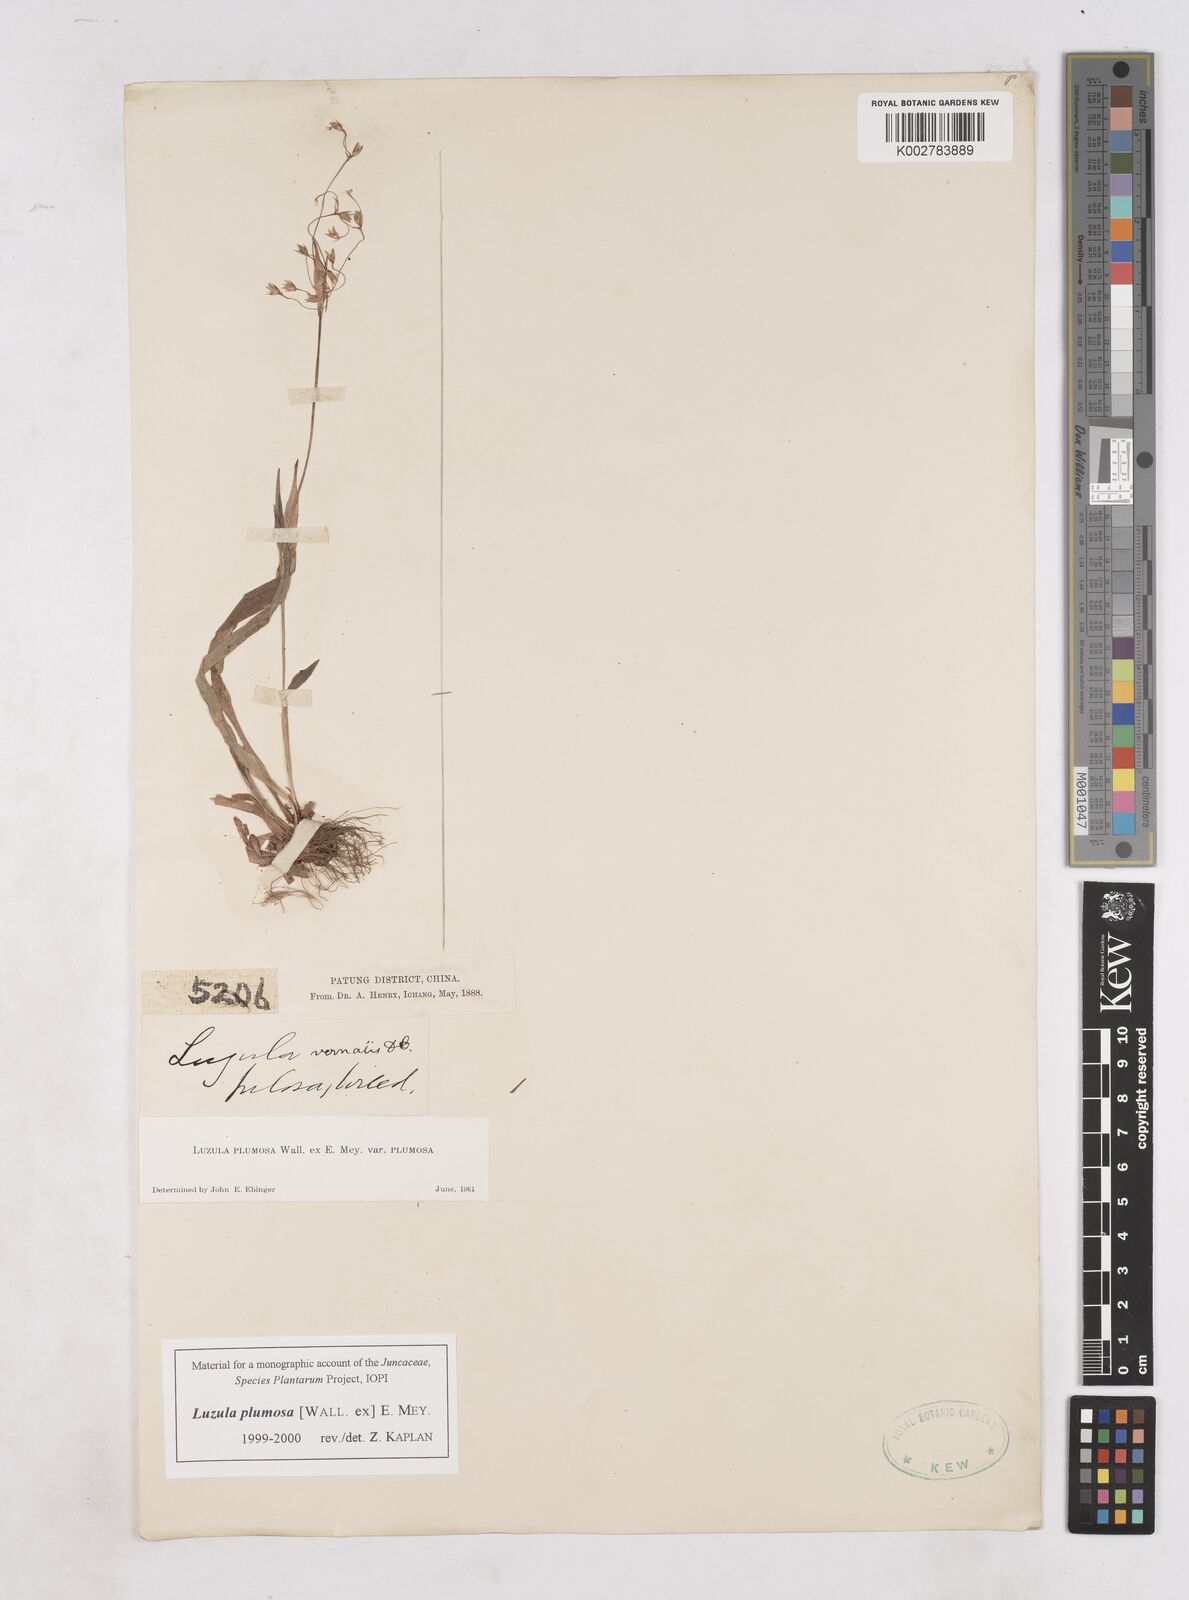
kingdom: Plantae
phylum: Tracheophyta
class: Liliopsida
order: Poales
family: Juncaceae
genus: Luzula
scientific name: Luzula plumosa
